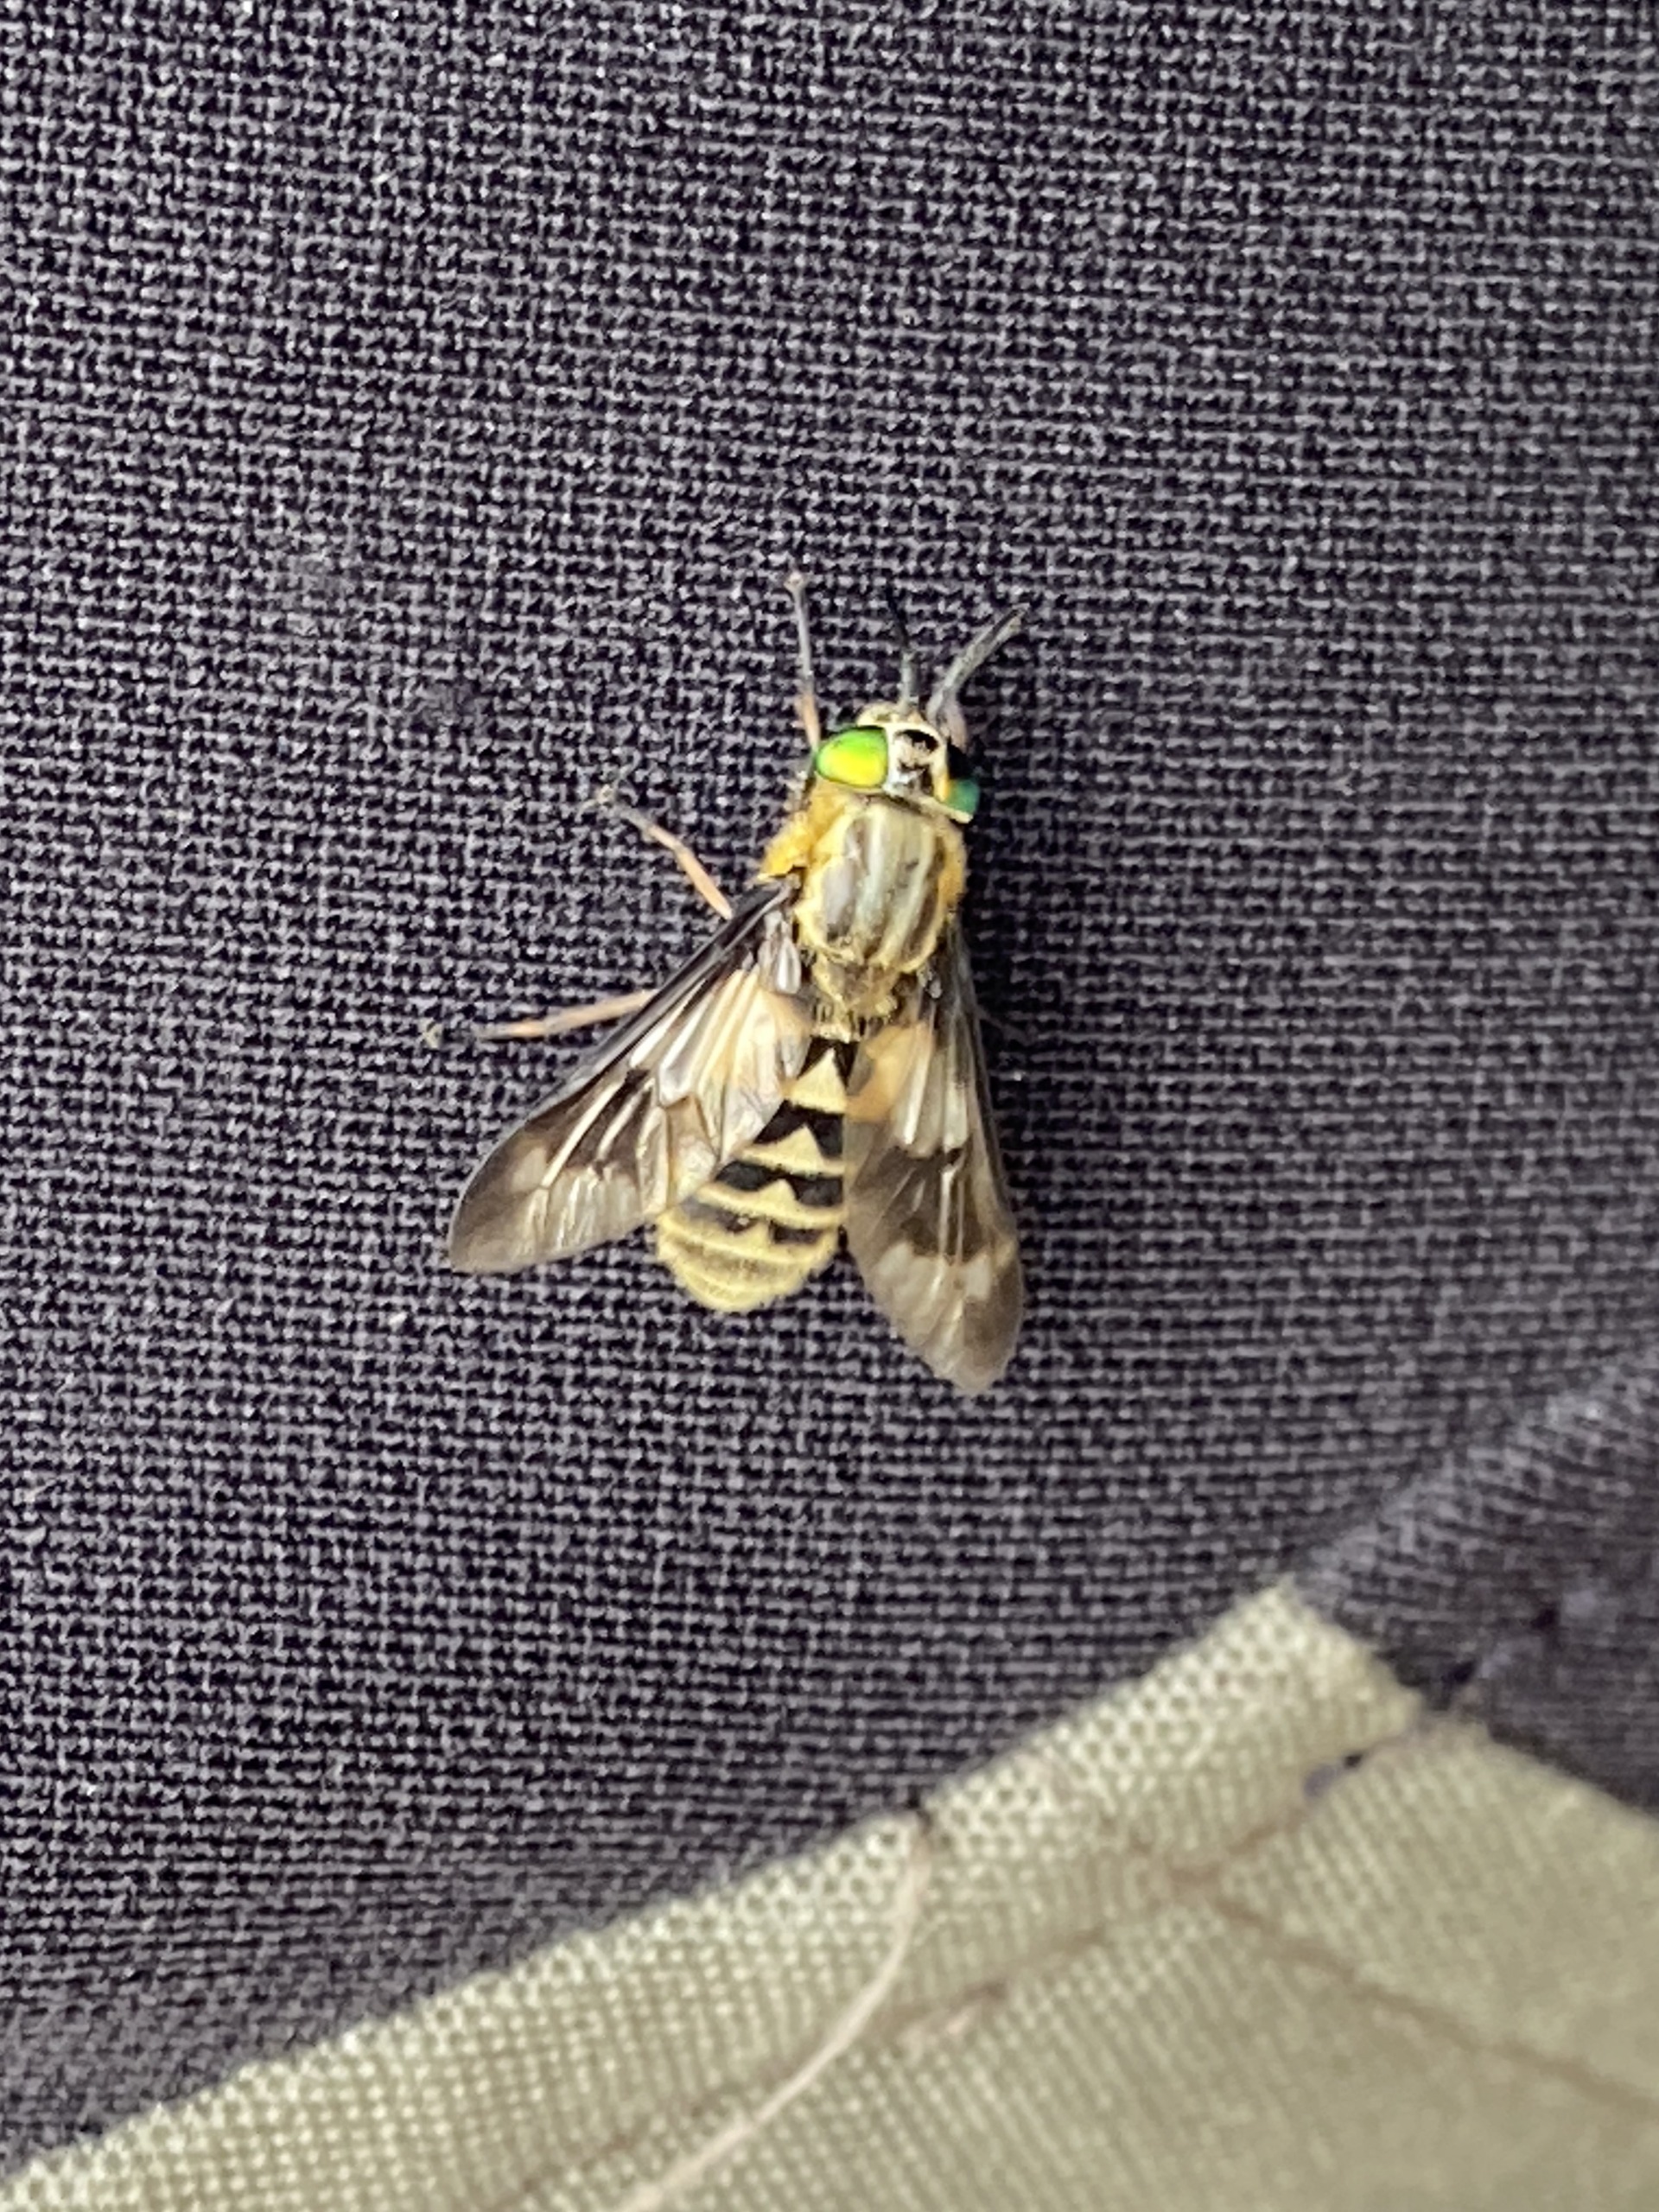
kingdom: Animalia
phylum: Arthropoda
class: Insecta
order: Diptera
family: Tabanidae
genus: Chrysops
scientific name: Chrysops relictus
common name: Guldklæg
